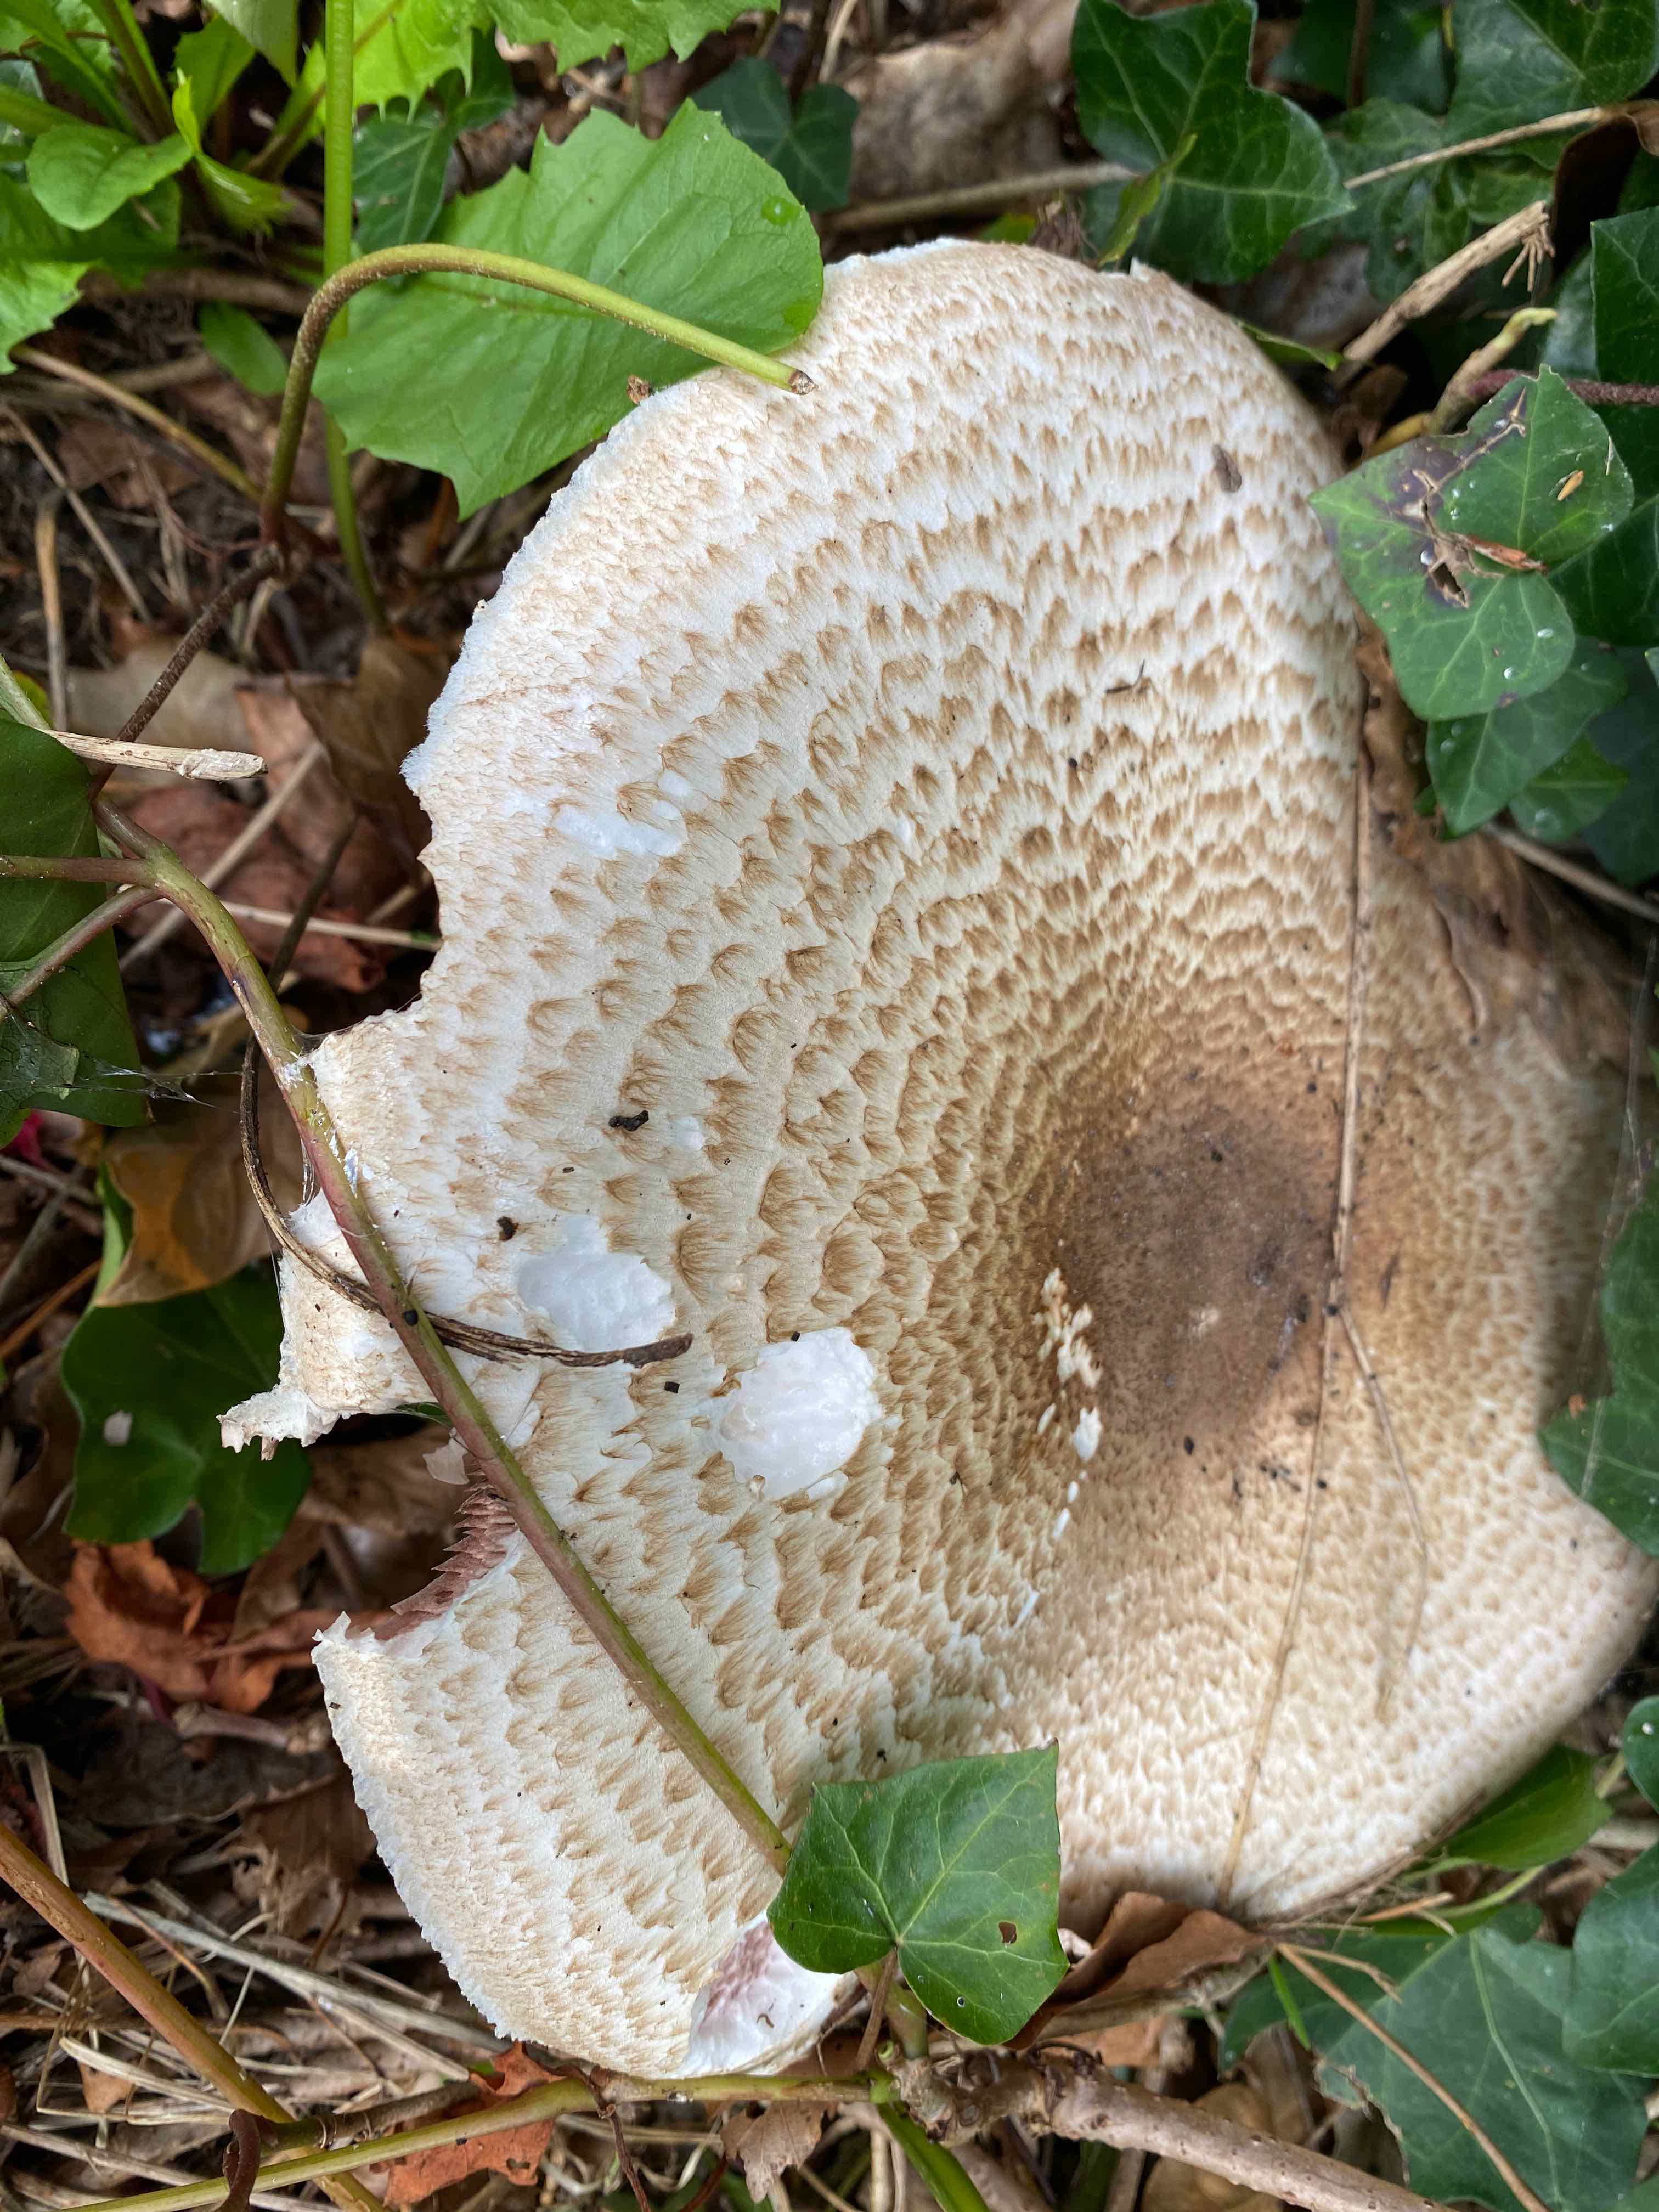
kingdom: Fungi
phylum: Basidiomycota
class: Agaricomycetes
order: Agaricales
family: Agaricaceae
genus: Agaricus
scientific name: Agaricus augustus
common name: prægtig champignon
